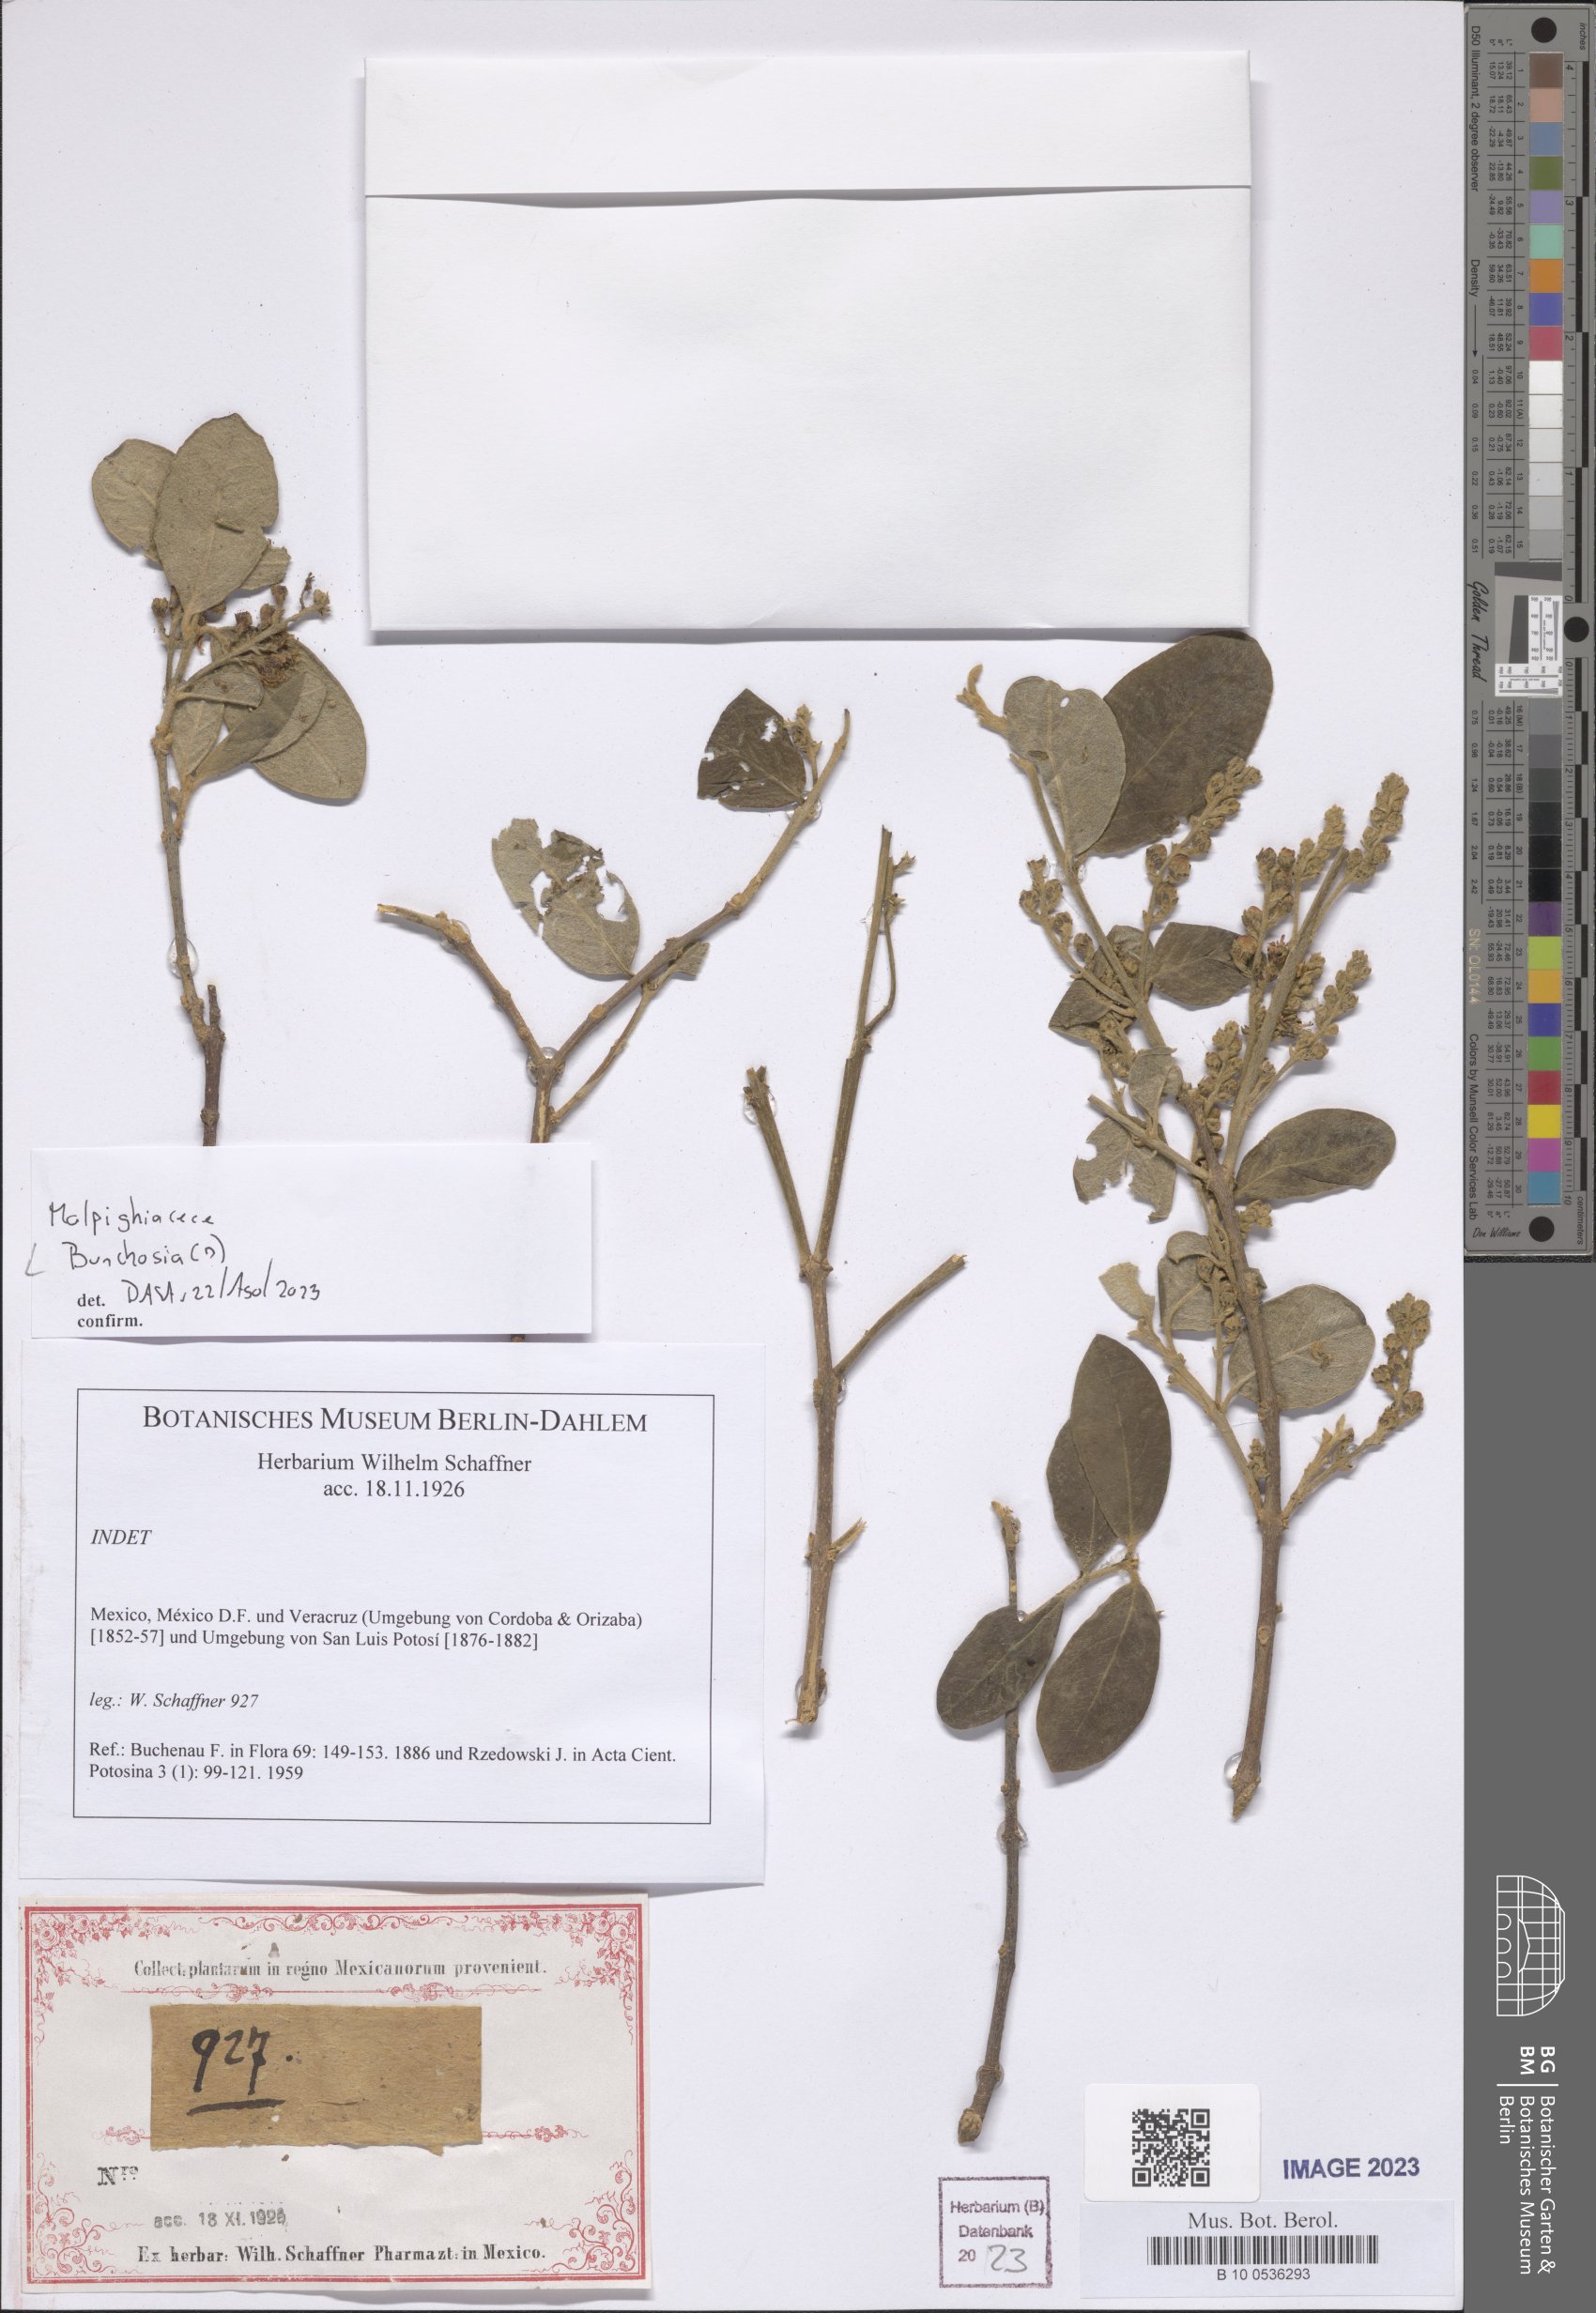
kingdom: Plantae
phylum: Tracheophyta
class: Magnoliopsida
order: Malpighiales
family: Malpighiaceae
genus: Bunchosia
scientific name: Bunchosia
